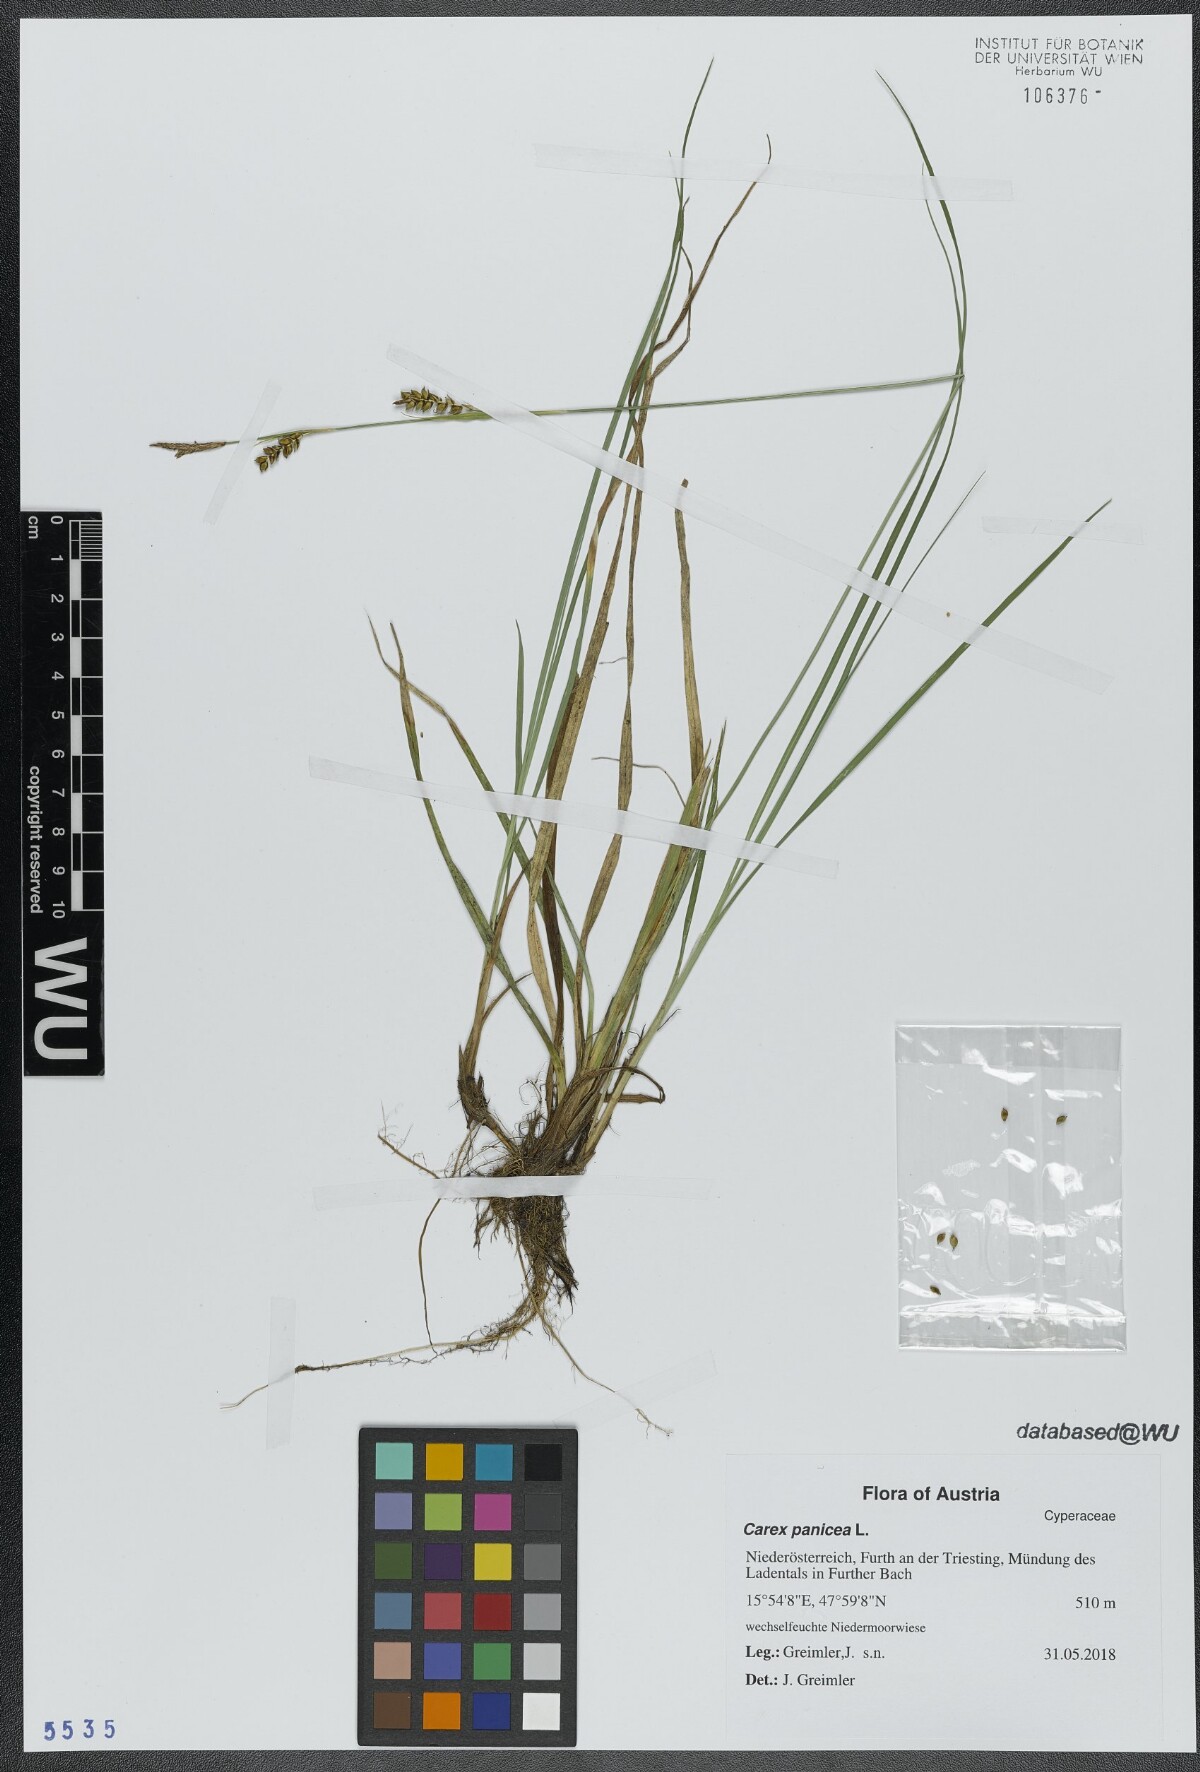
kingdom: Plantae
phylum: Tracheophyta
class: Liliopsida
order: Poales
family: Cyperaceae
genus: Carex
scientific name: Carex panicea
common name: Carnation sedge
